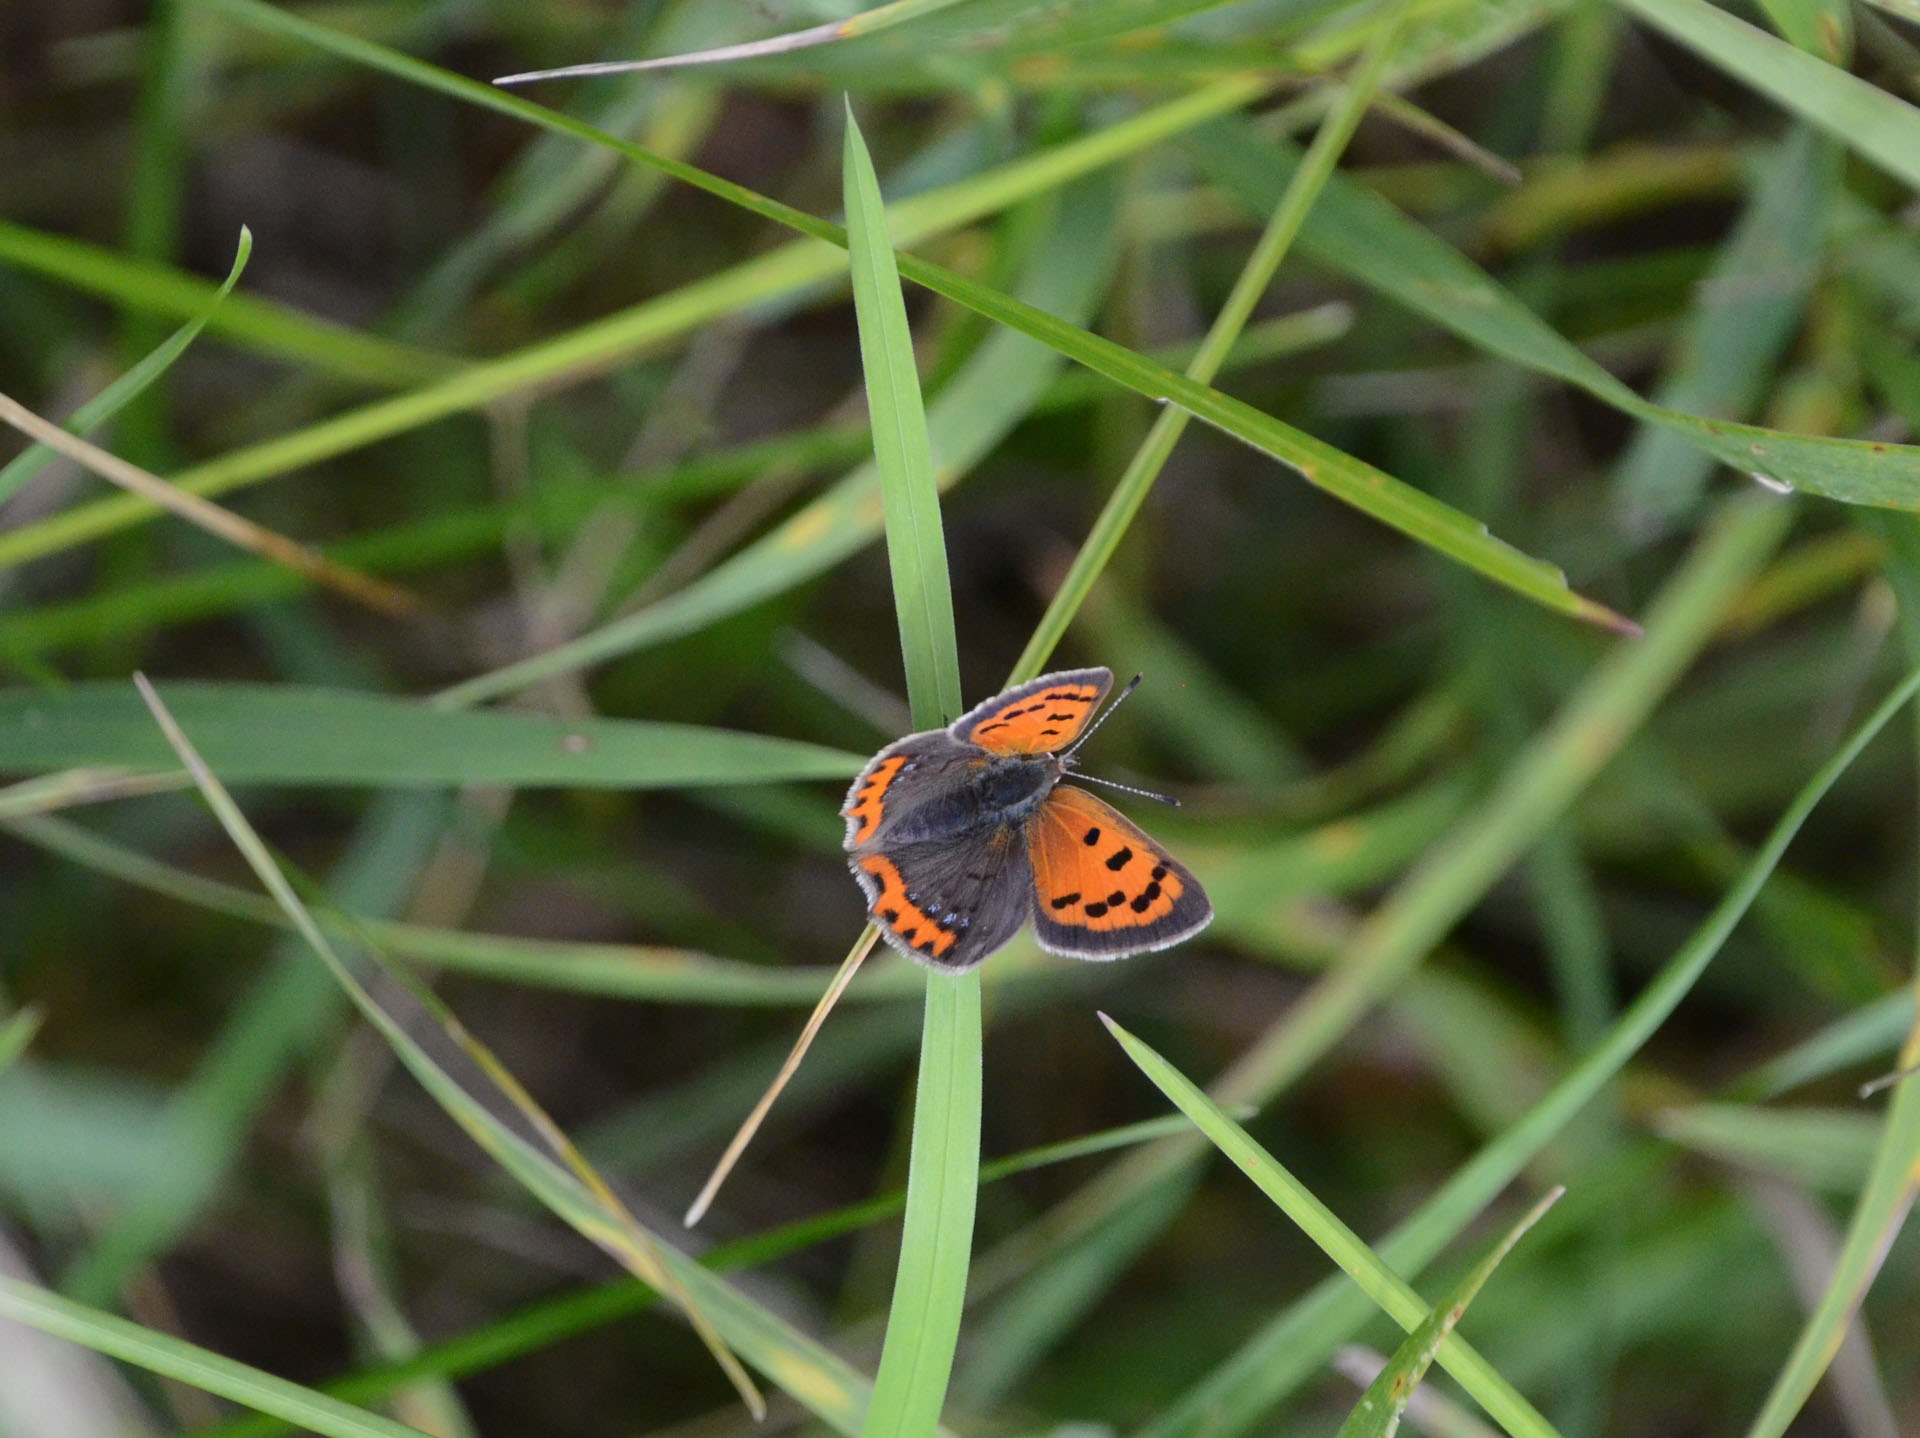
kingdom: Animalia
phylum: Arthropoda
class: Insecta
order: Lepidoptera
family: Lycaenidae
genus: Lycaena
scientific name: Lycaena phlaeas
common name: Lille ildfugl
